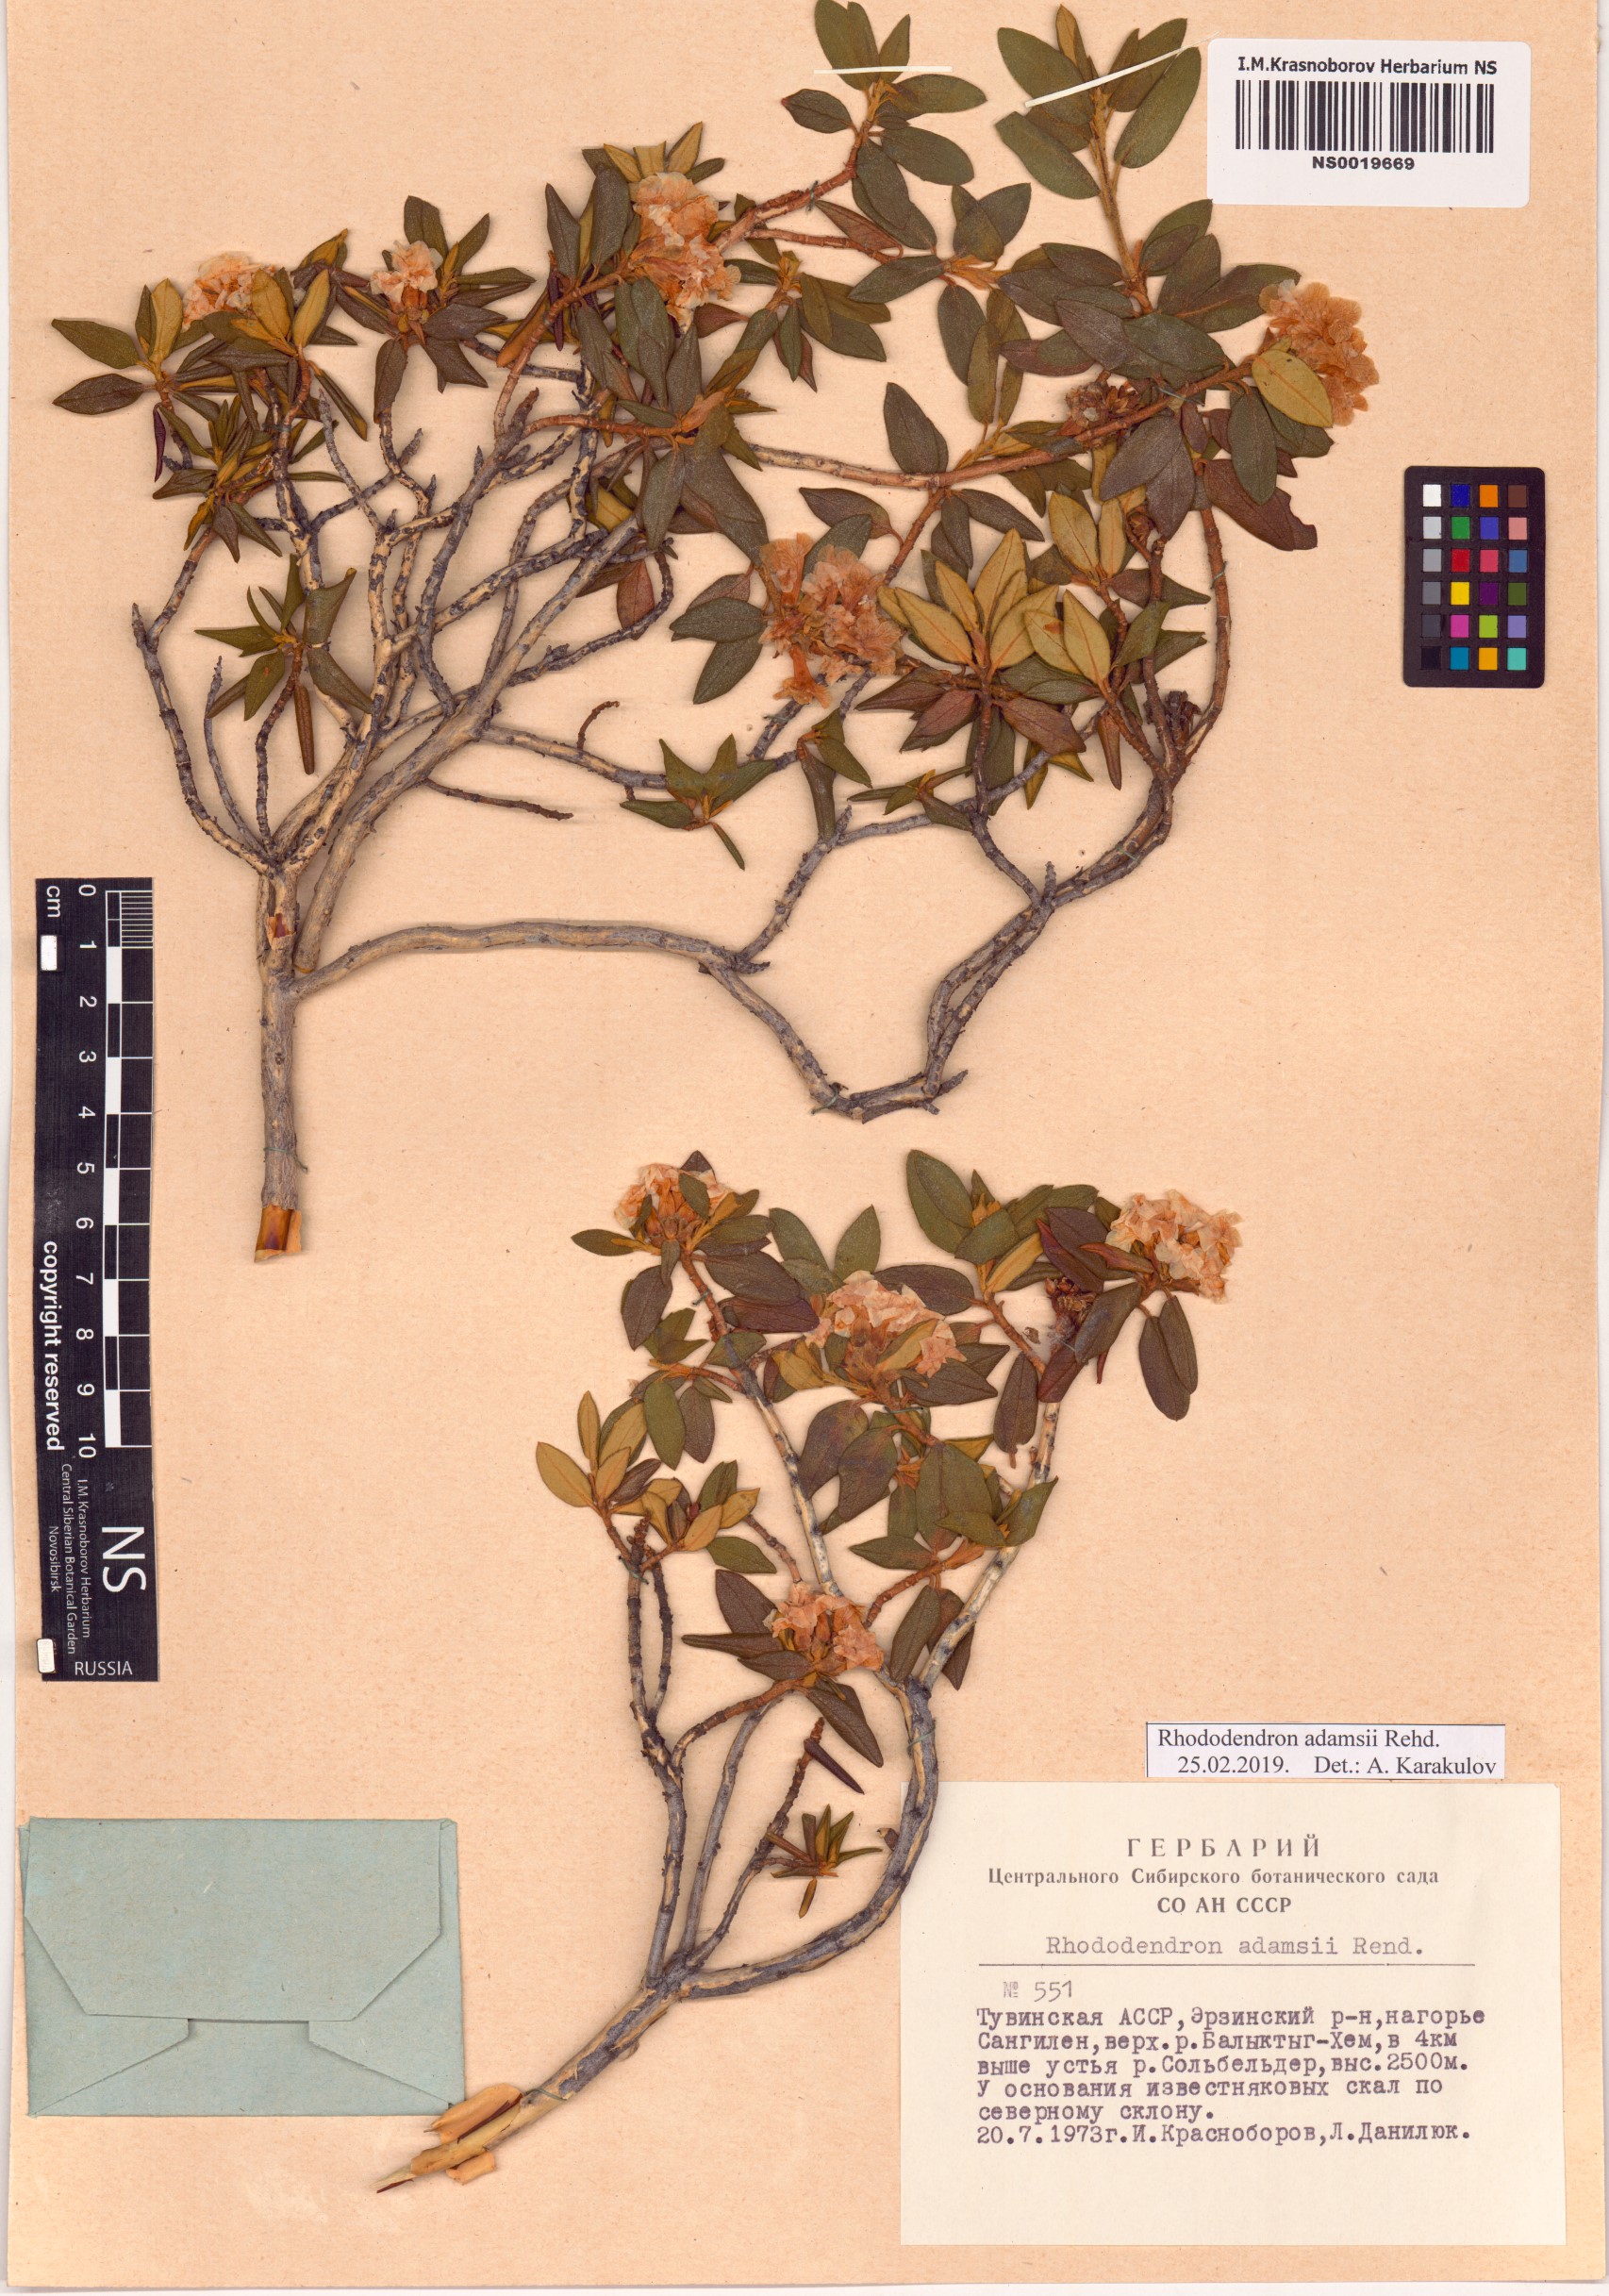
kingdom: Plantae
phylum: Tracheophyta
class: Magnoliopsida
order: Ericales
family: Ericaceae
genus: Rhododendron
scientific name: Rhododendron adamsii
